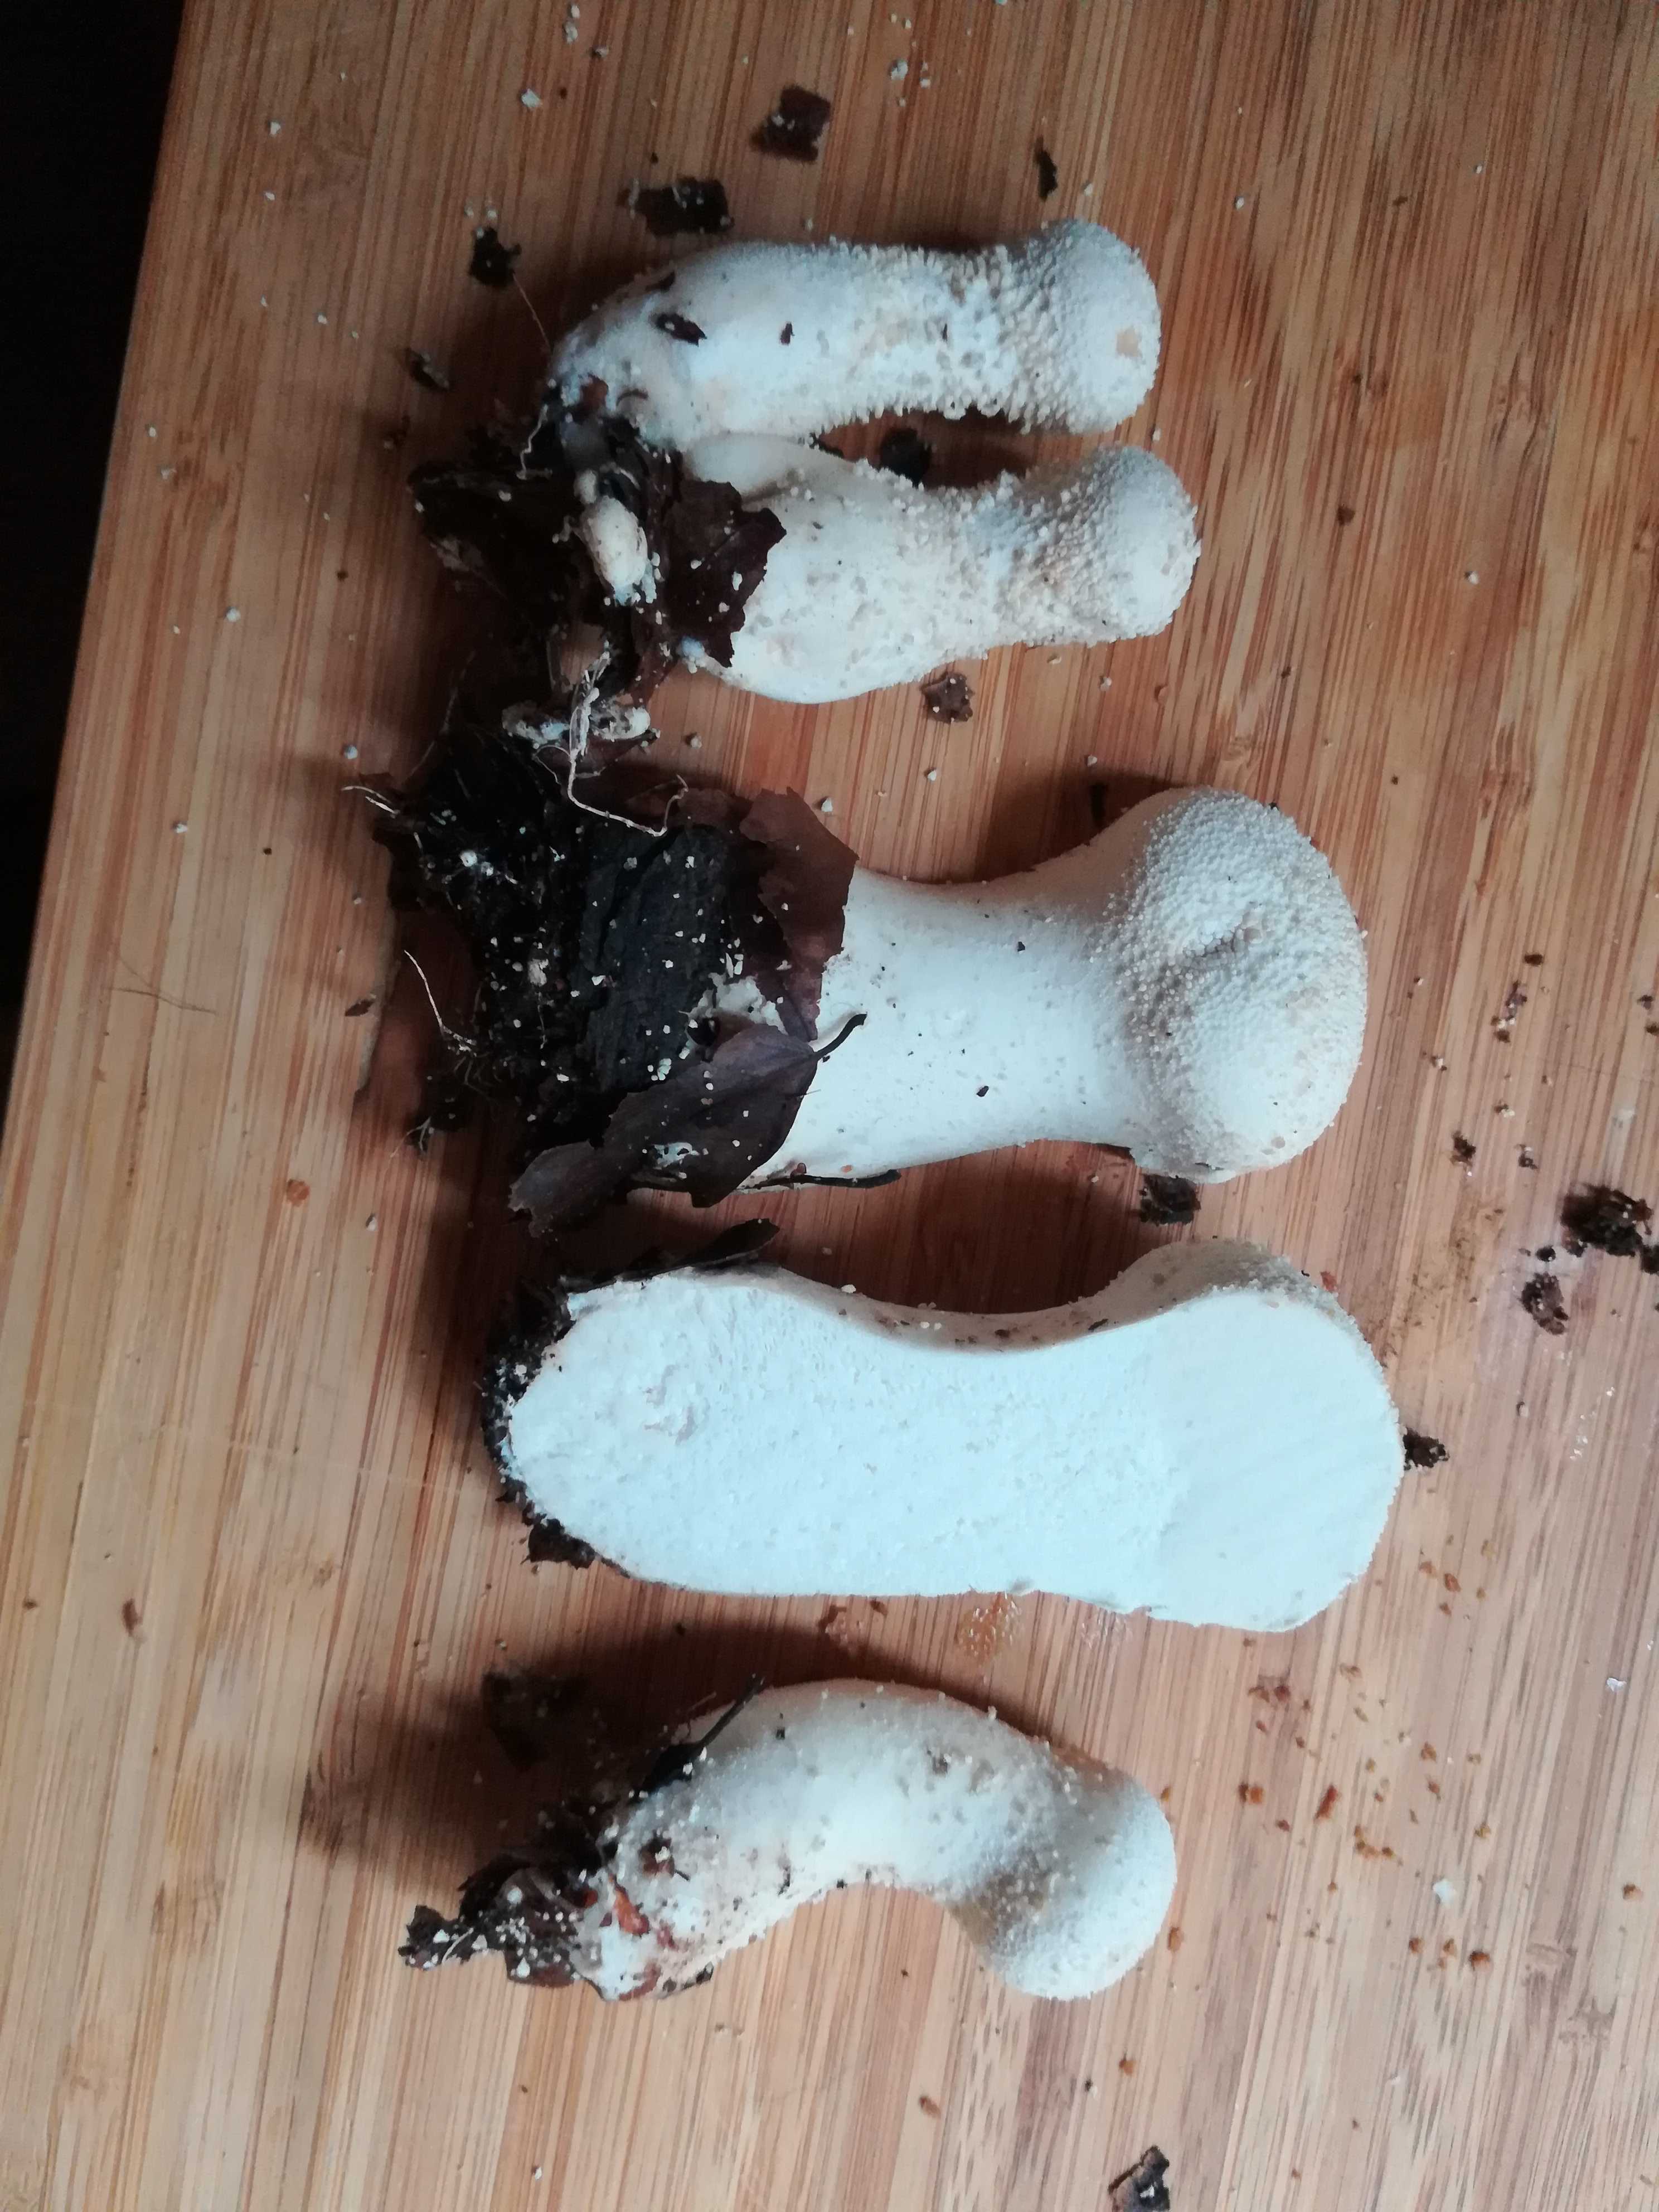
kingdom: Fungi
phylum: Basidiomycota
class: Agaricomycetes
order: Agaricales
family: Agaricaceae
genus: Lycoperdon
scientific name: Lycoperdon
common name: støvbold
